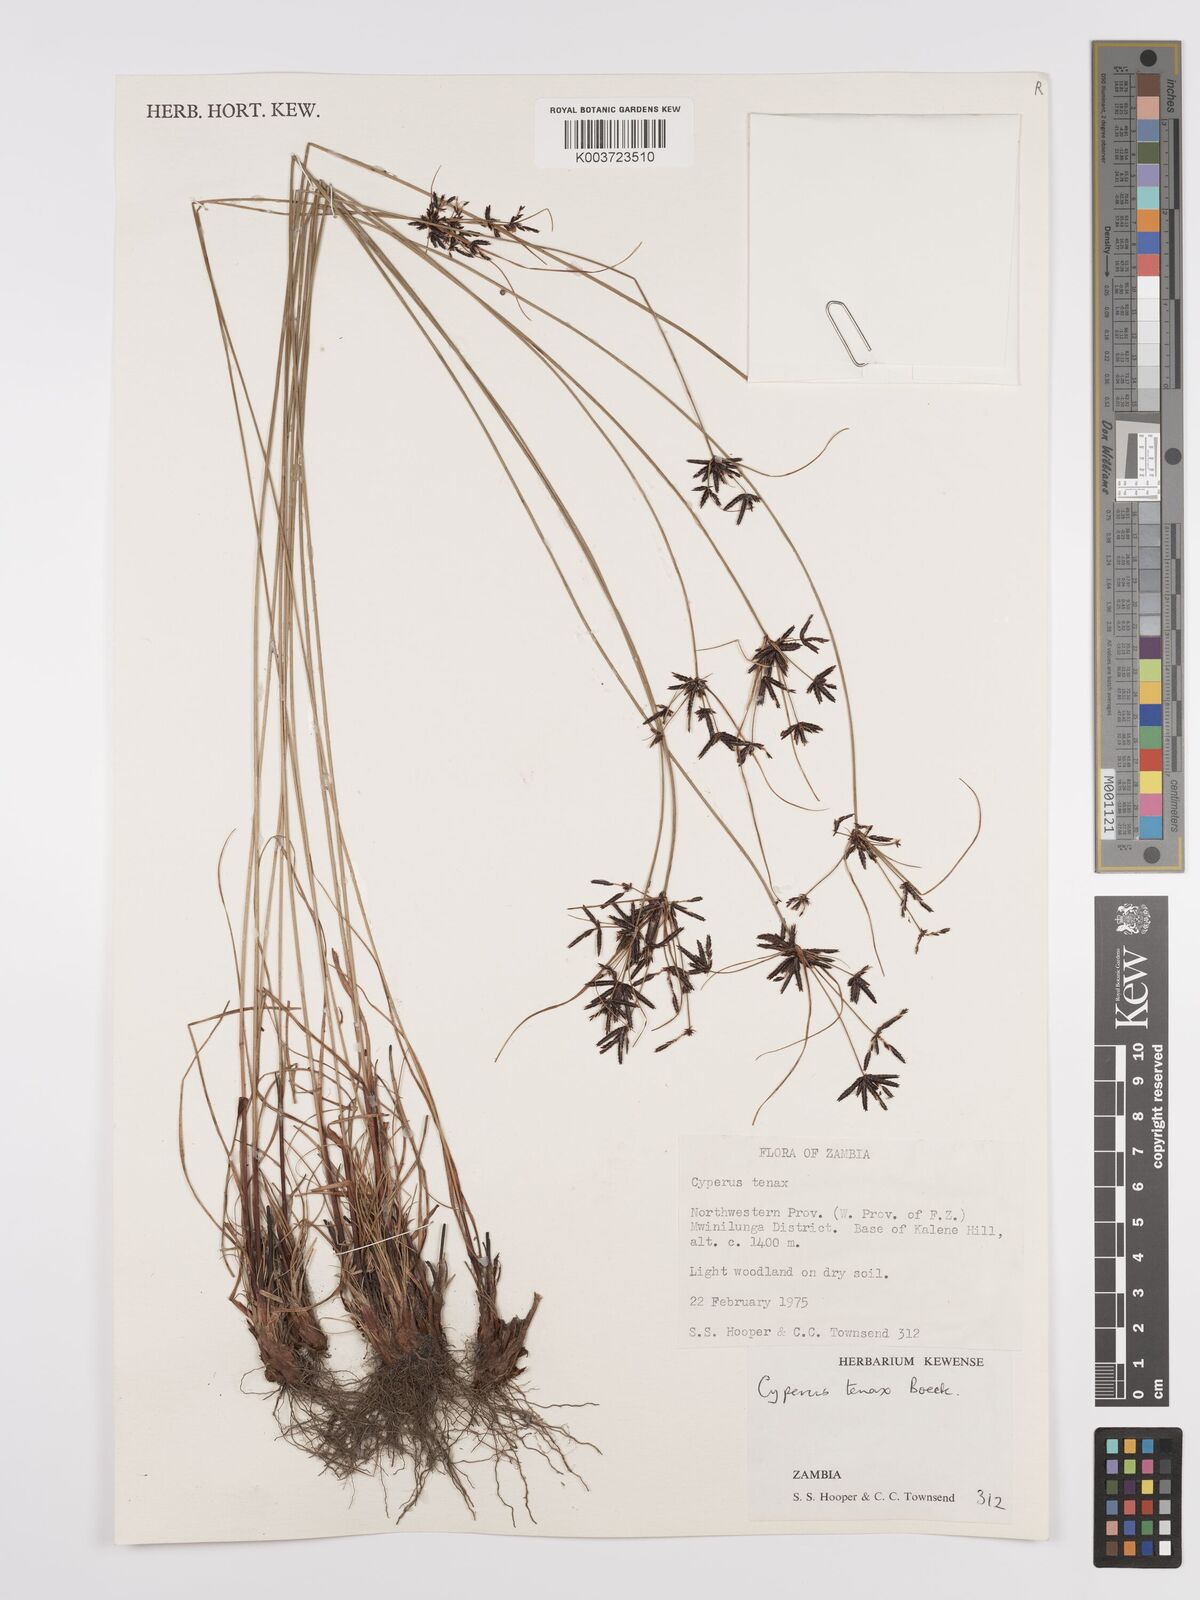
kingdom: Plantae
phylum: Tracheophyta
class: Liliopsida
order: Poales
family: Cyperaceae
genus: Cyperus
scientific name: Cyperus tenax
